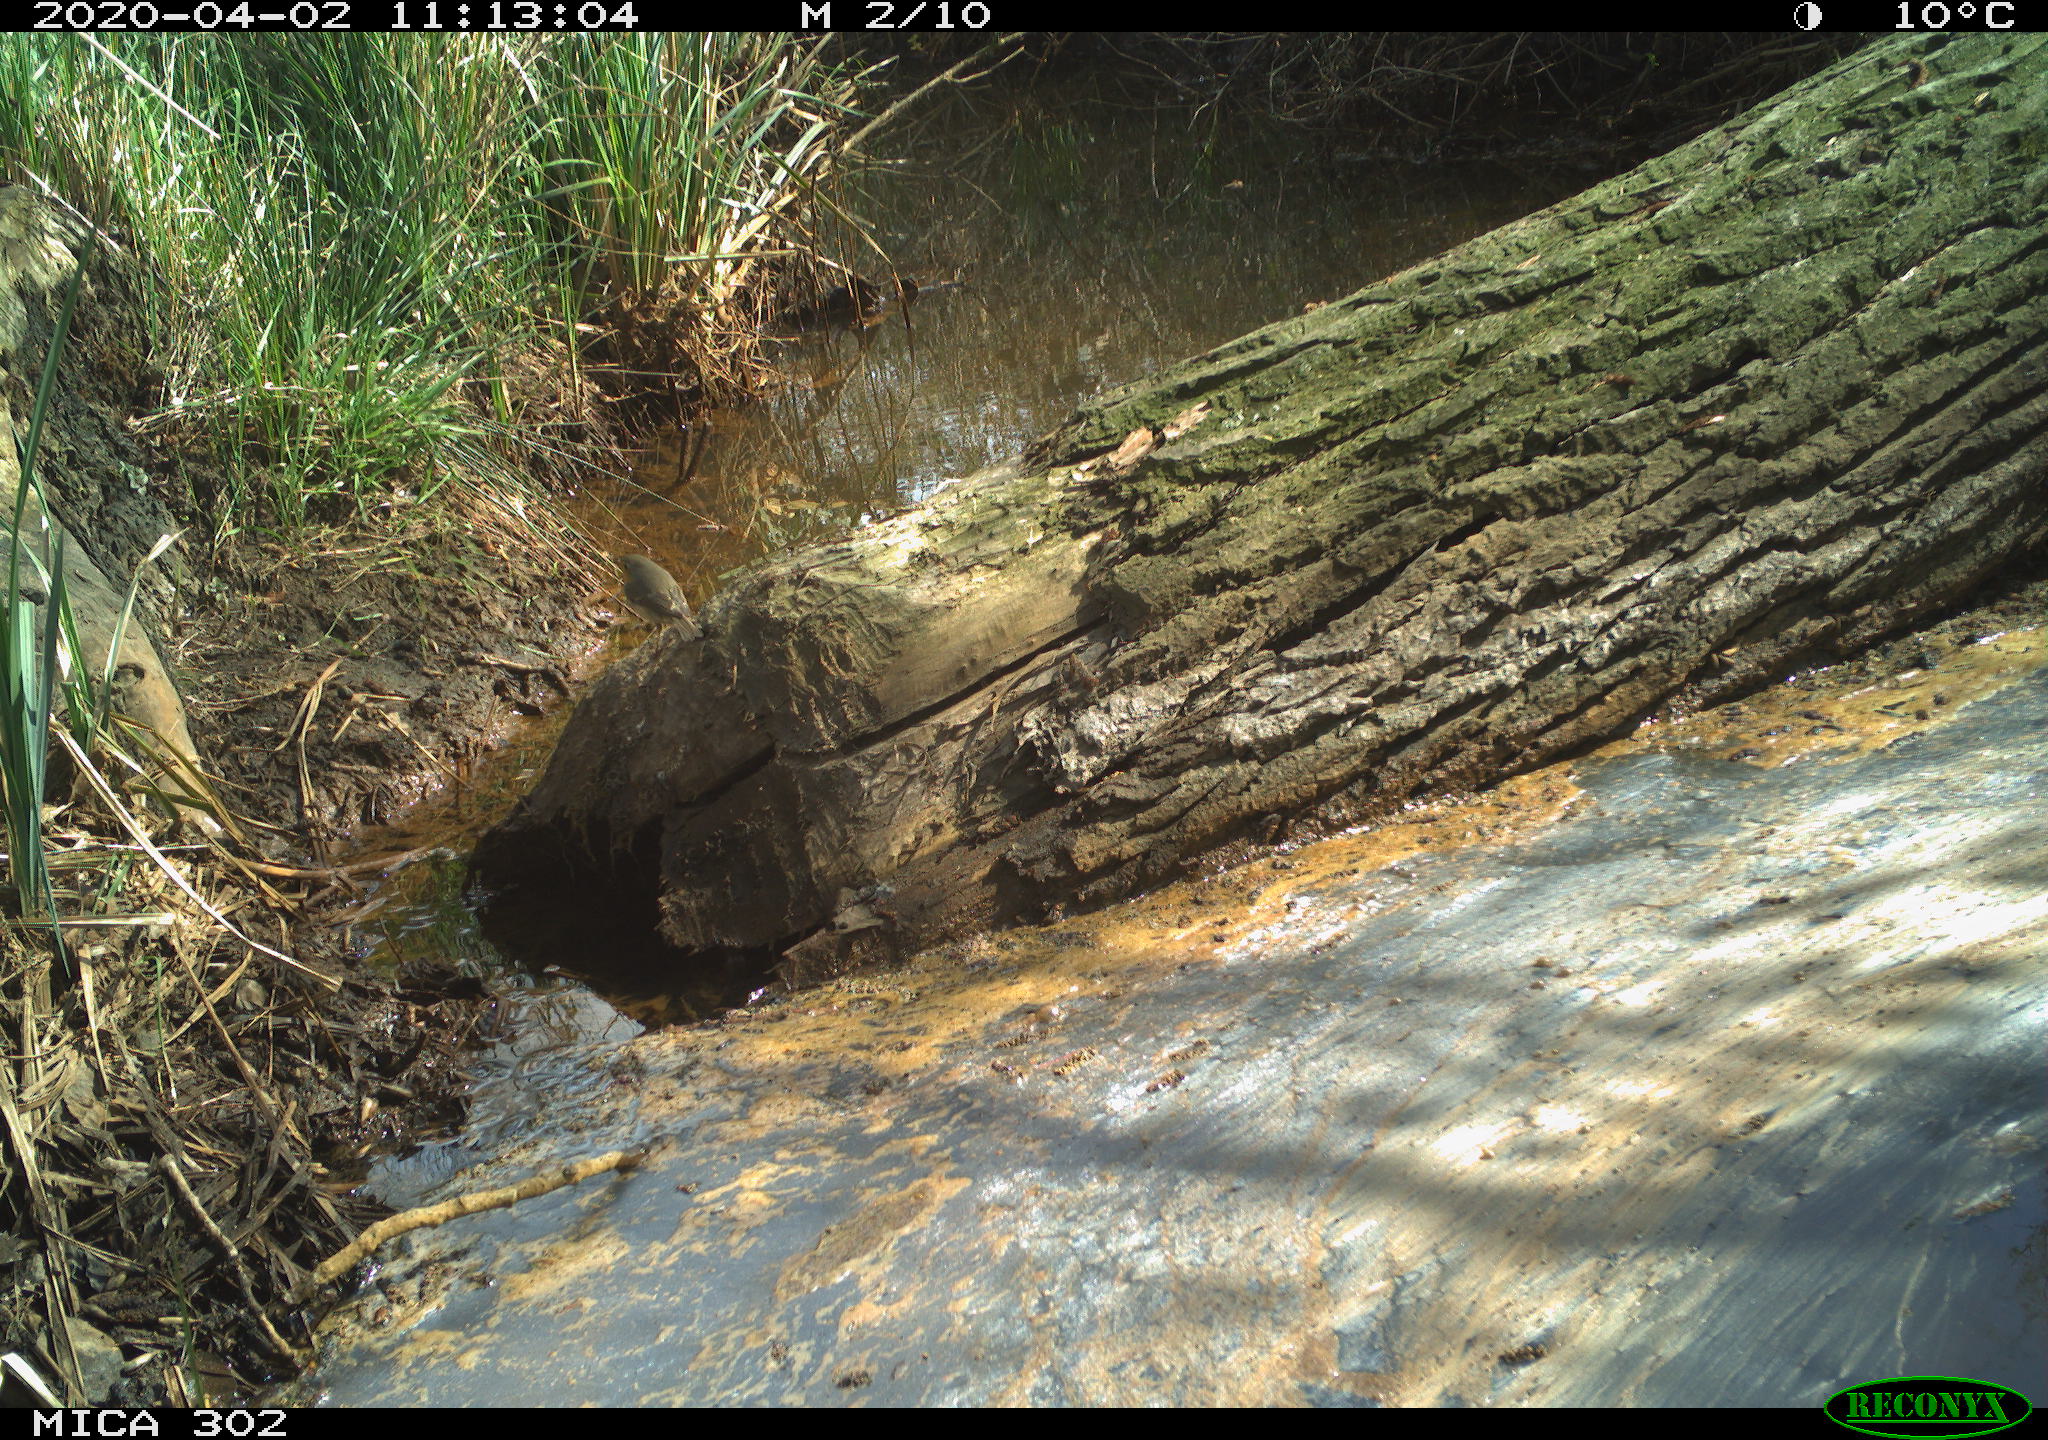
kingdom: Animalia
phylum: Chordata
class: Aves
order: Passeriformes
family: Muscicapidae
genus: Erithacus
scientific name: Erithacus rubecula
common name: European robin
